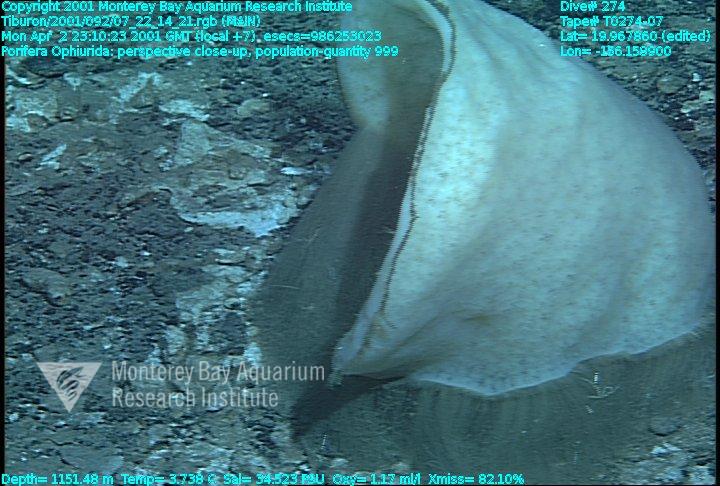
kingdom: Animalia
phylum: Porifera
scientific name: Porifera
